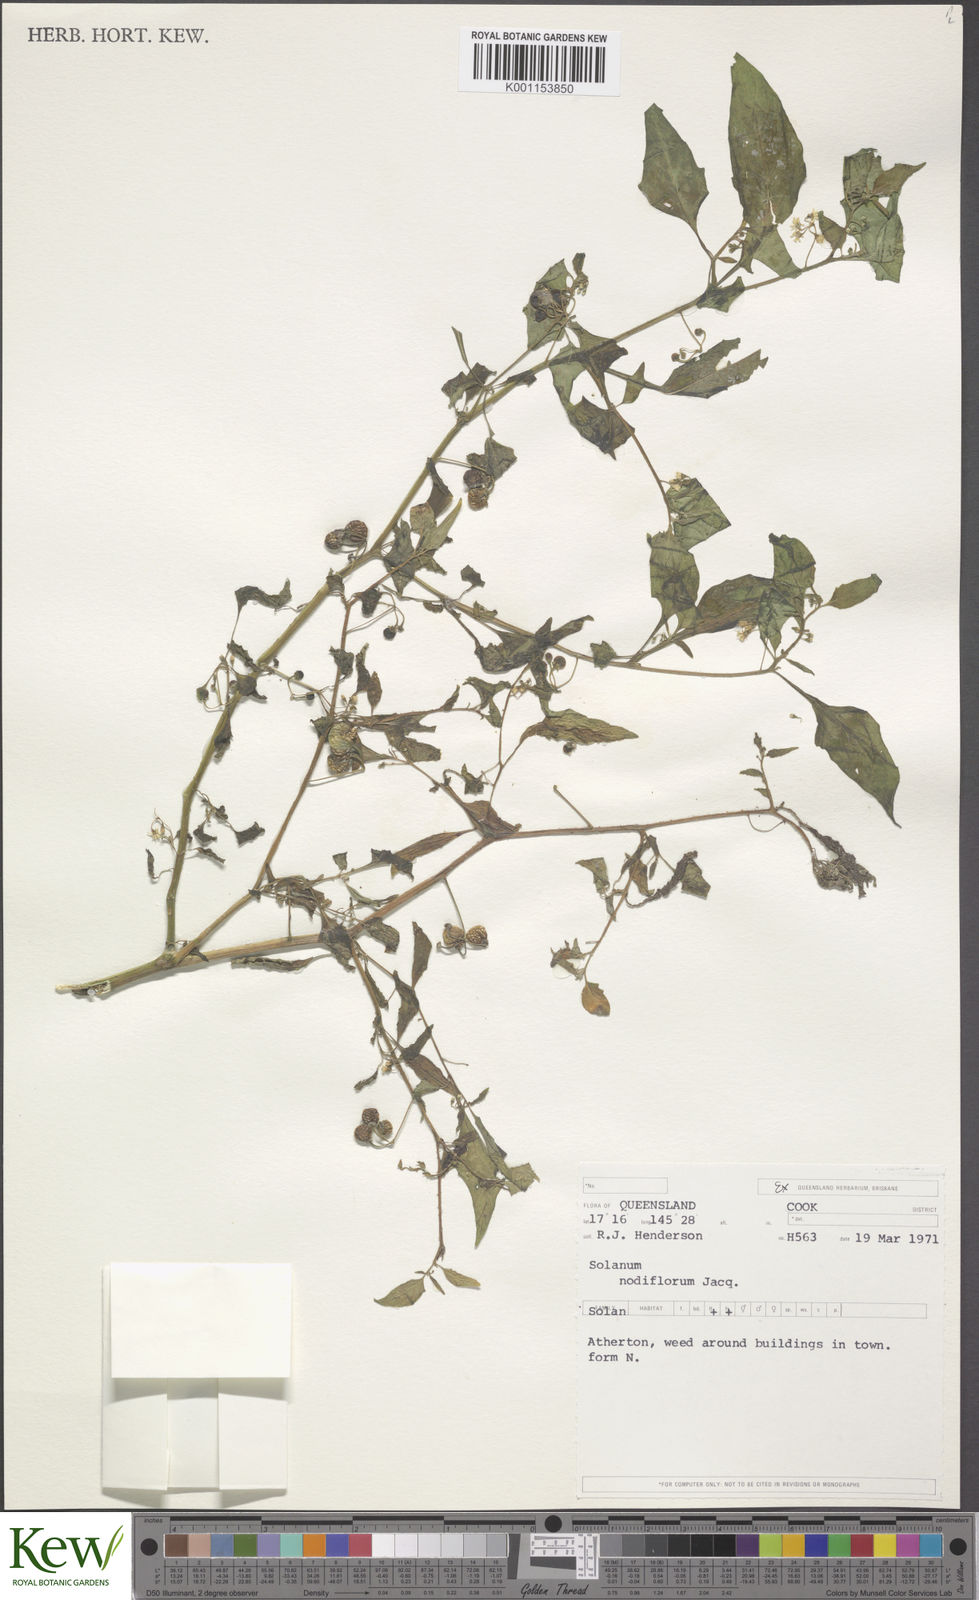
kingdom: Plantae
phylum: Tracheophyta
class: Magnoliopsida
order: Solanales
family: Solanaceae
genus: Solanum
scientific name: Solanum americanum
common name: American black nightshade
